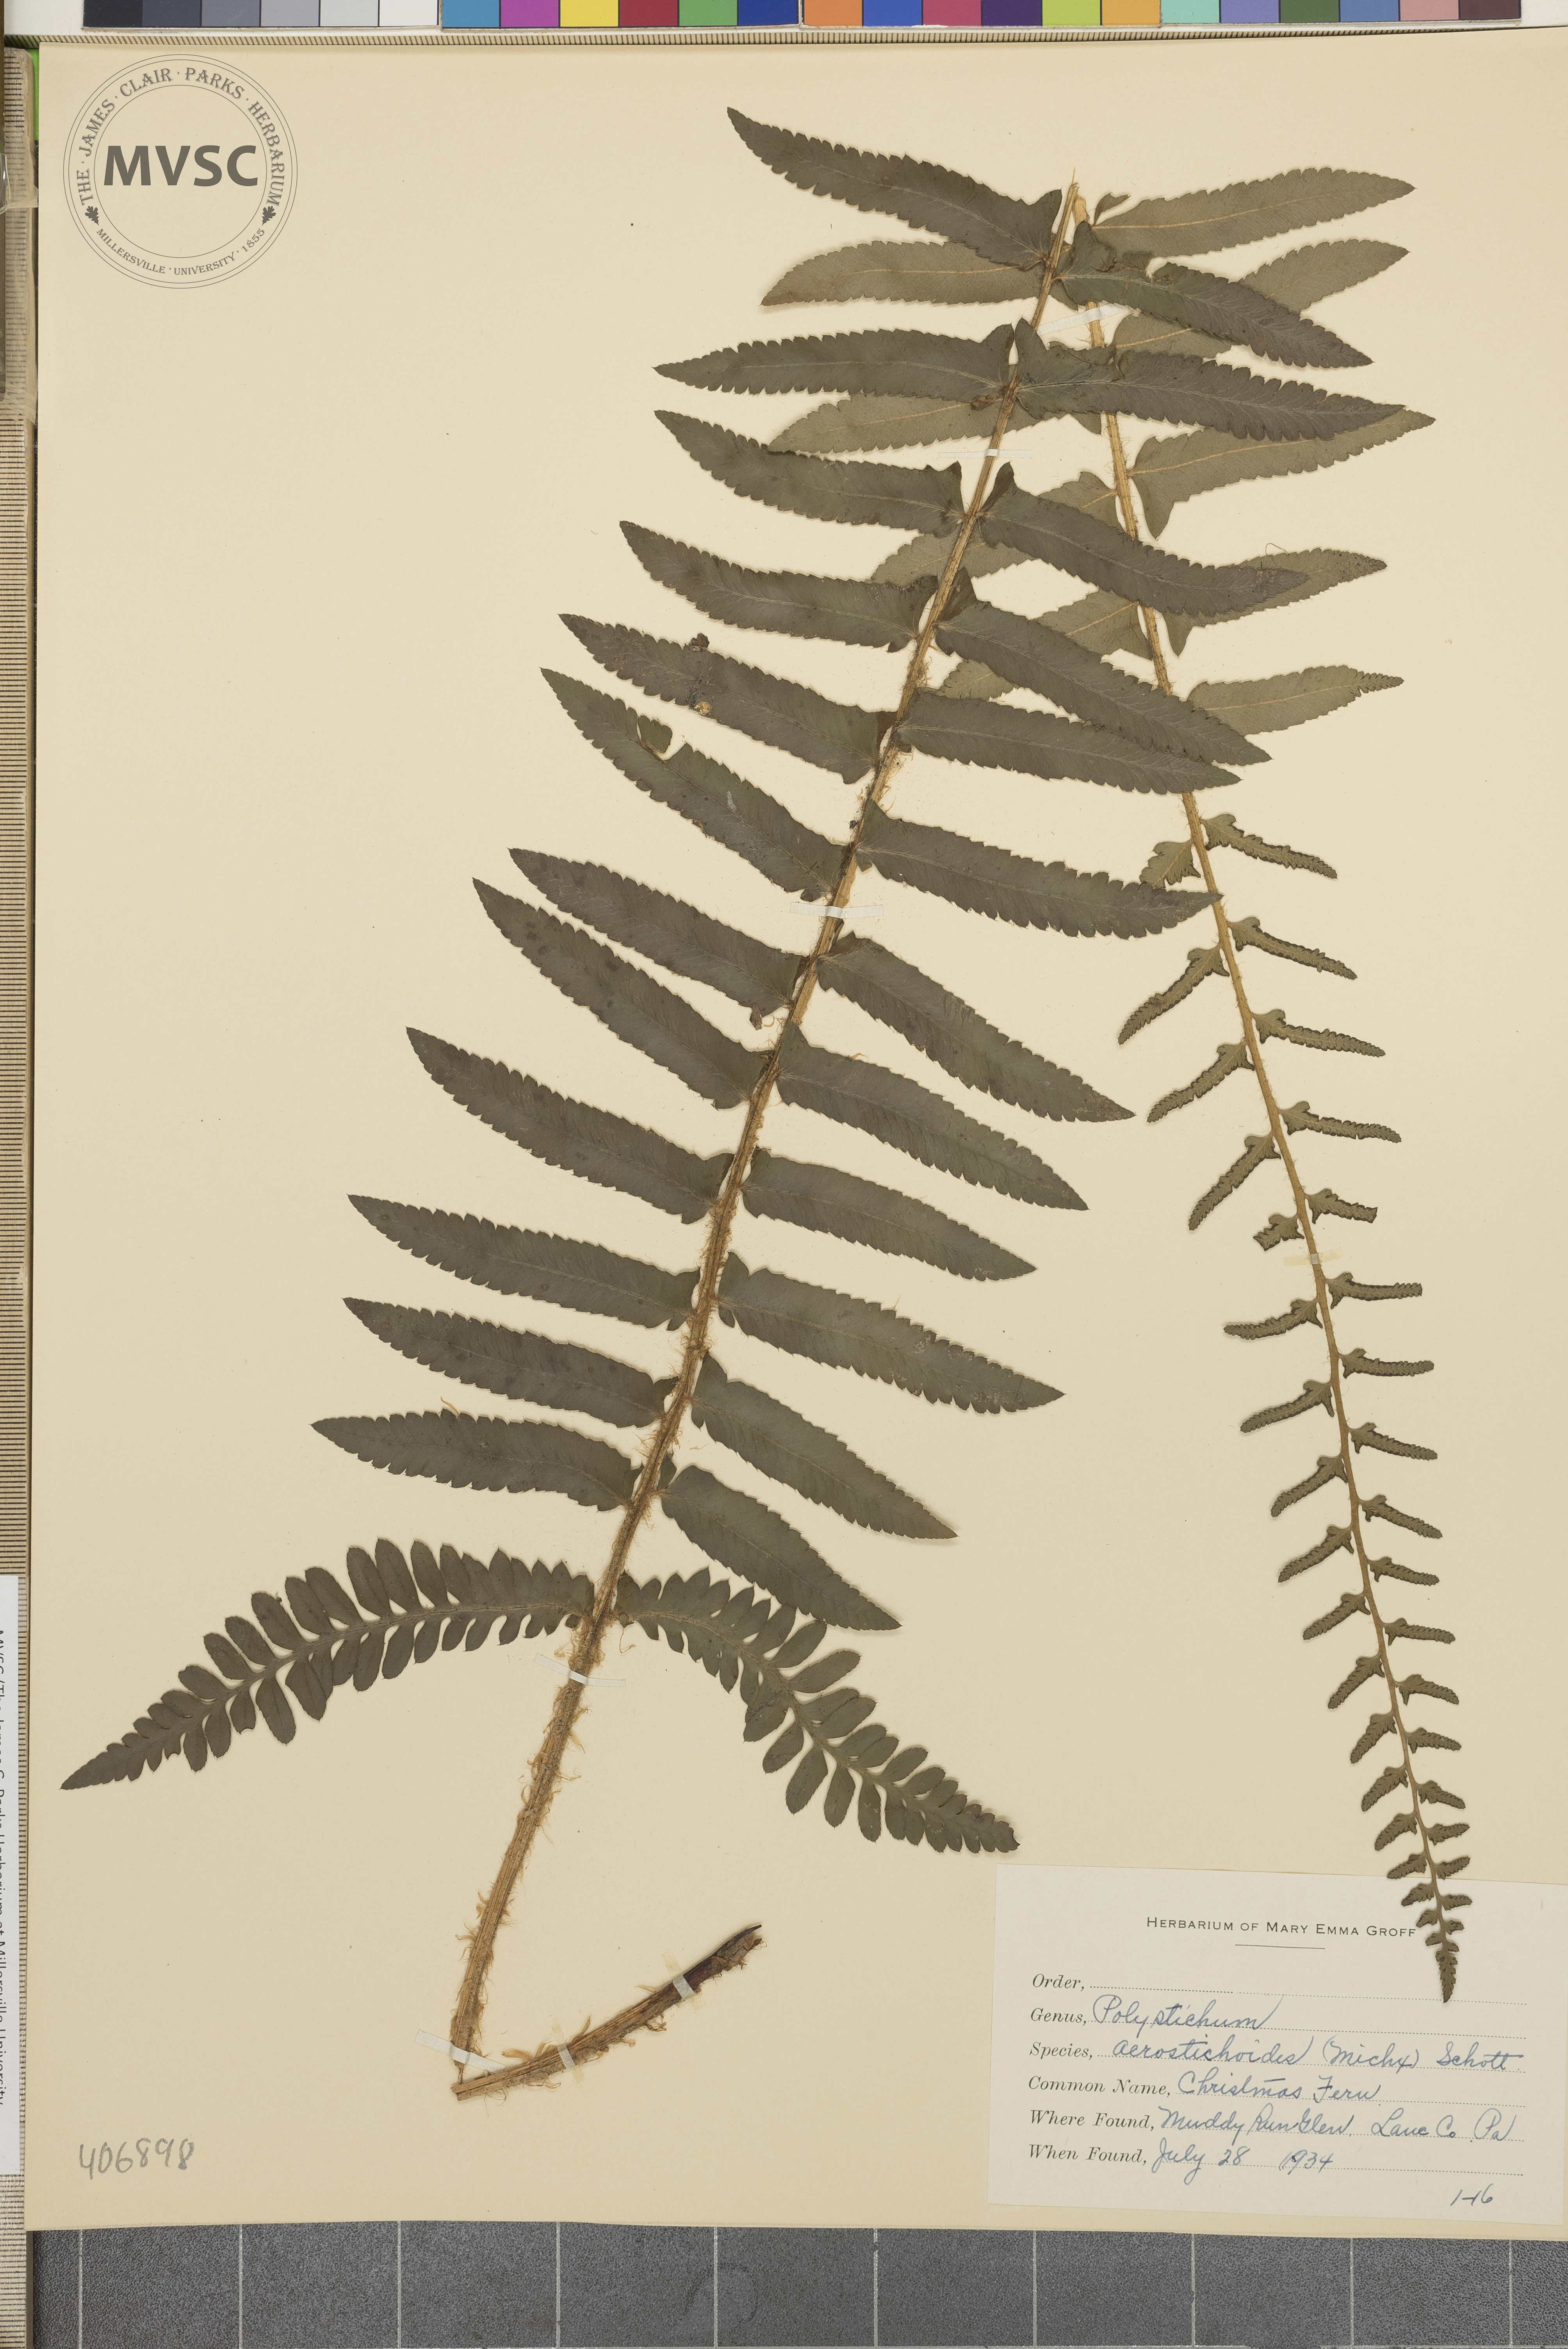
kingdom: Plantae
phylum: Tracheophyta
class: Polypodiopsida
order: Polypodiales
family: Dryopteridaceae
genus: Polystichum
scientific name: Polystichum acrostichoides
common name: Christmas fern
